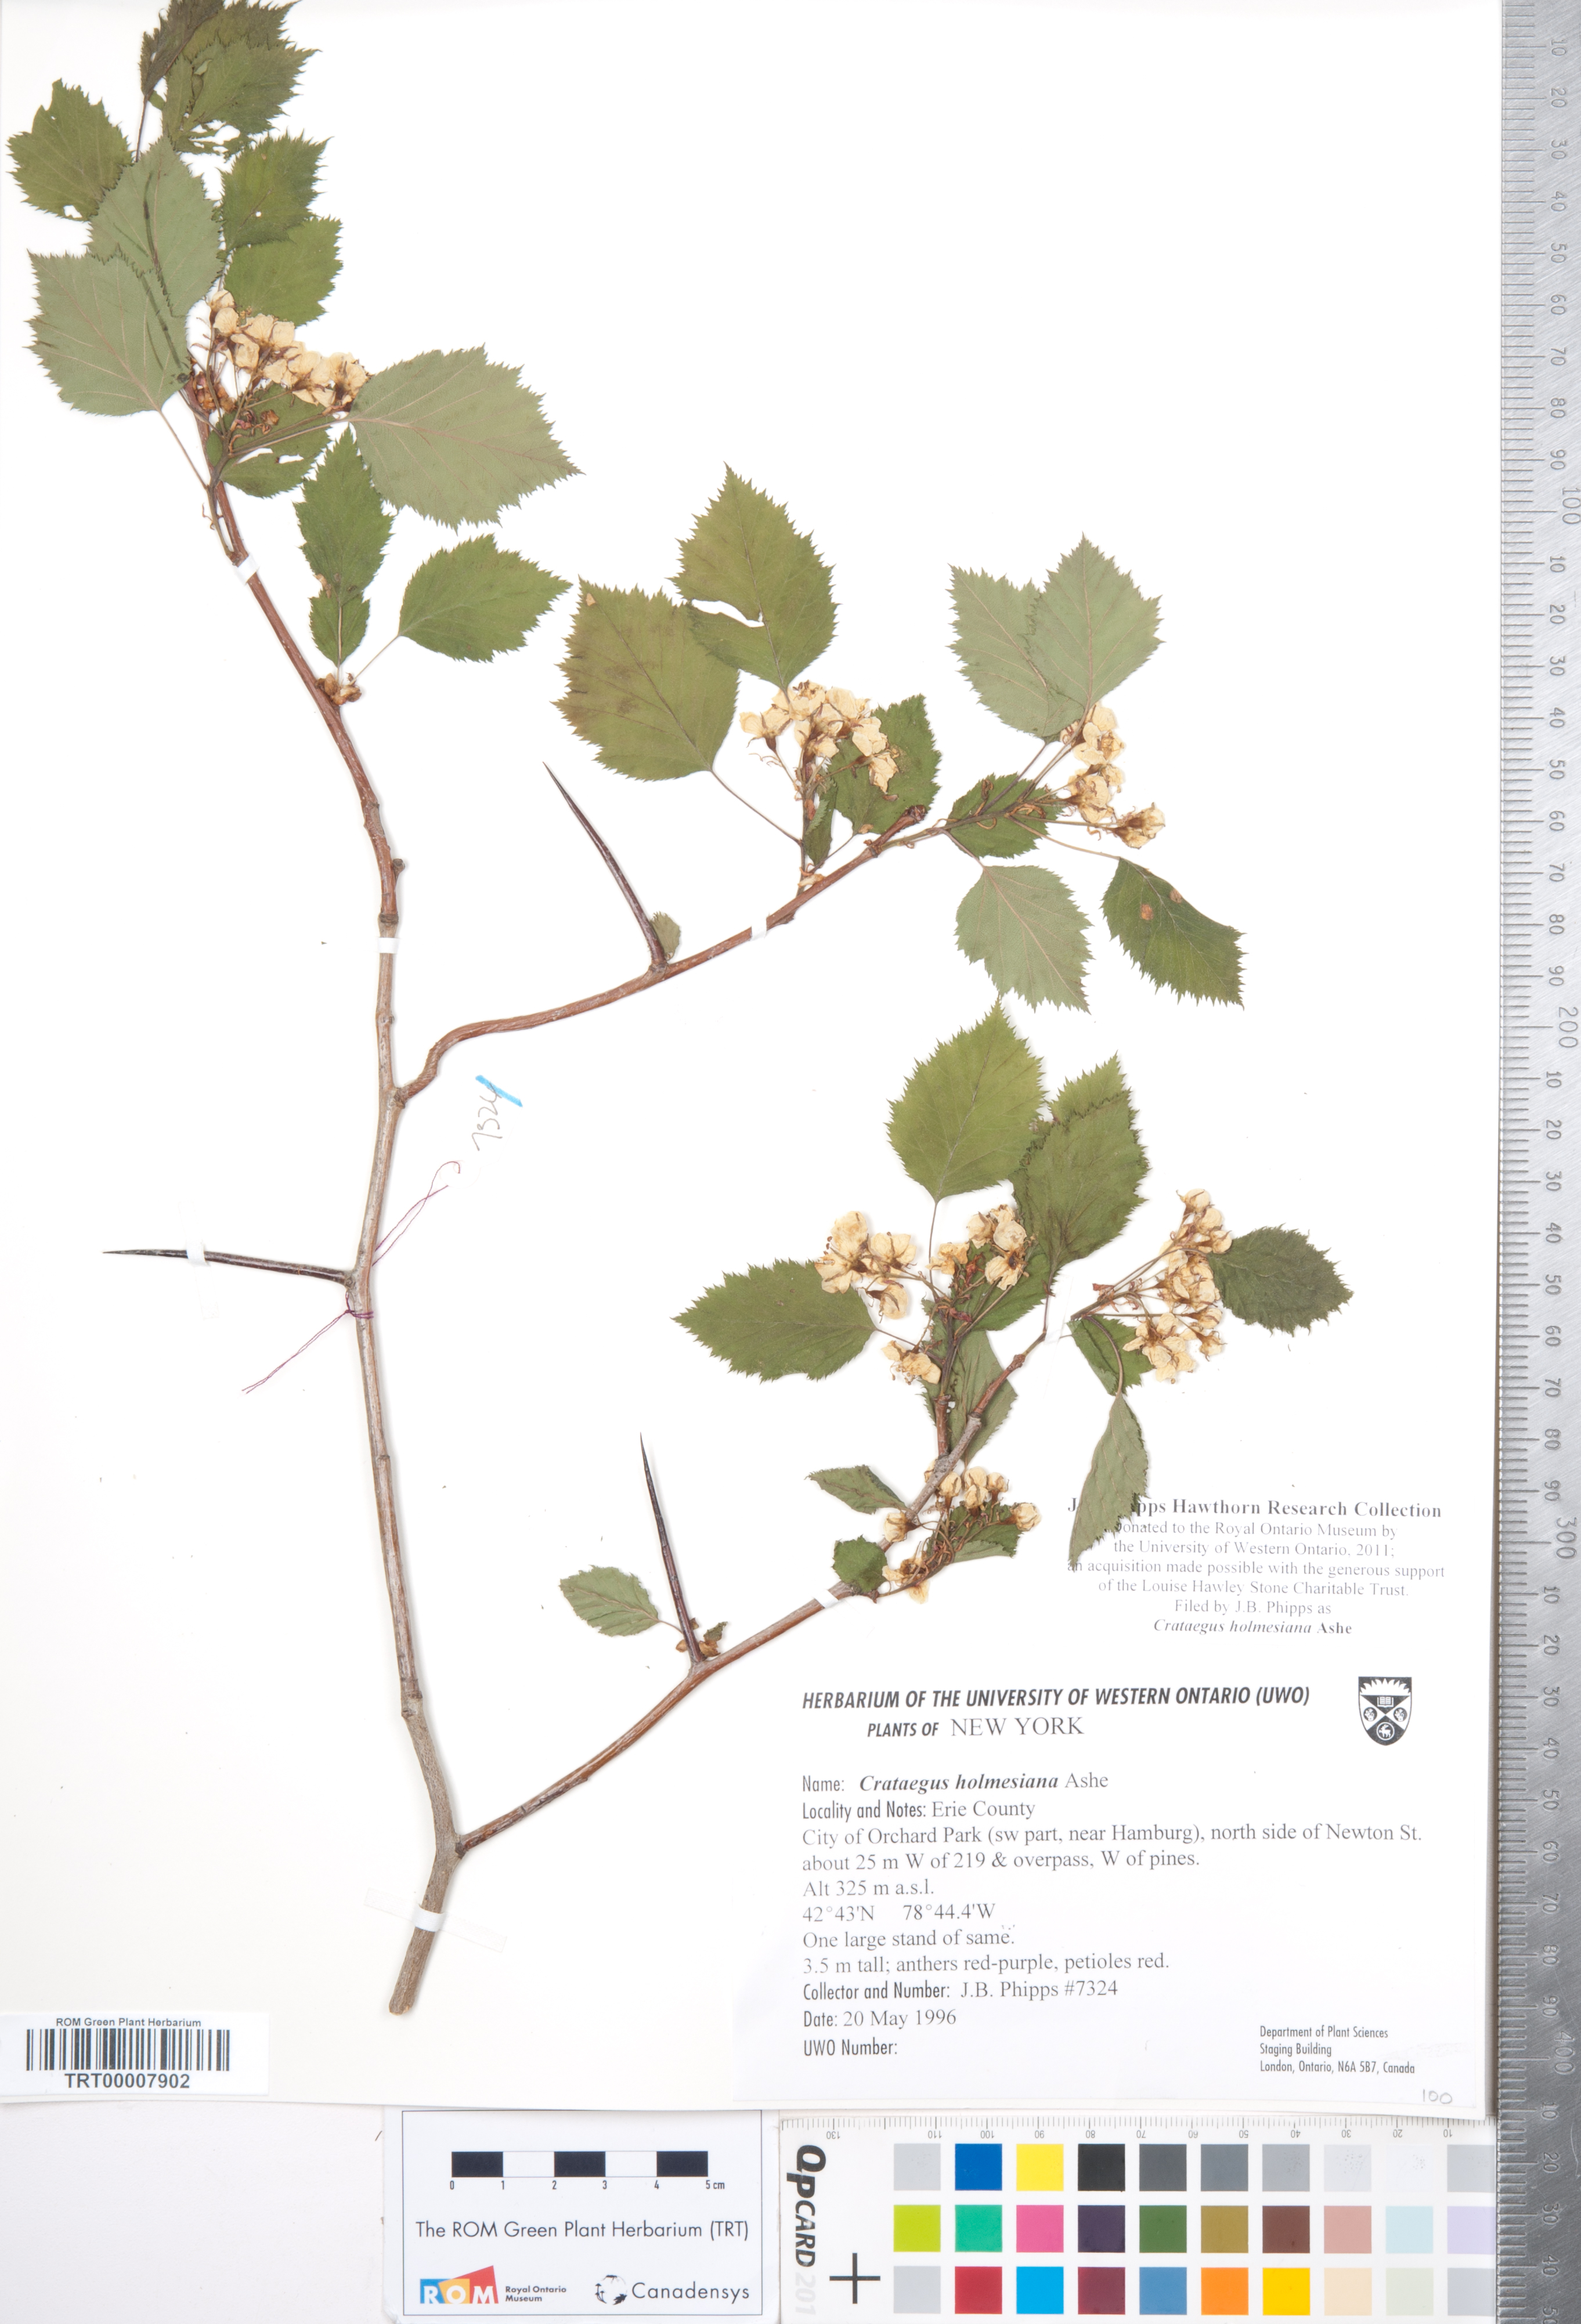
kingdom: Plantae
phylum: Tracheophyta
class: Magnoliopsida
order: Rosales
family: Rosaceae
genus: Crataegus
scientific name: Crataegus holmesiana
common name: Holmes' hawthorn
